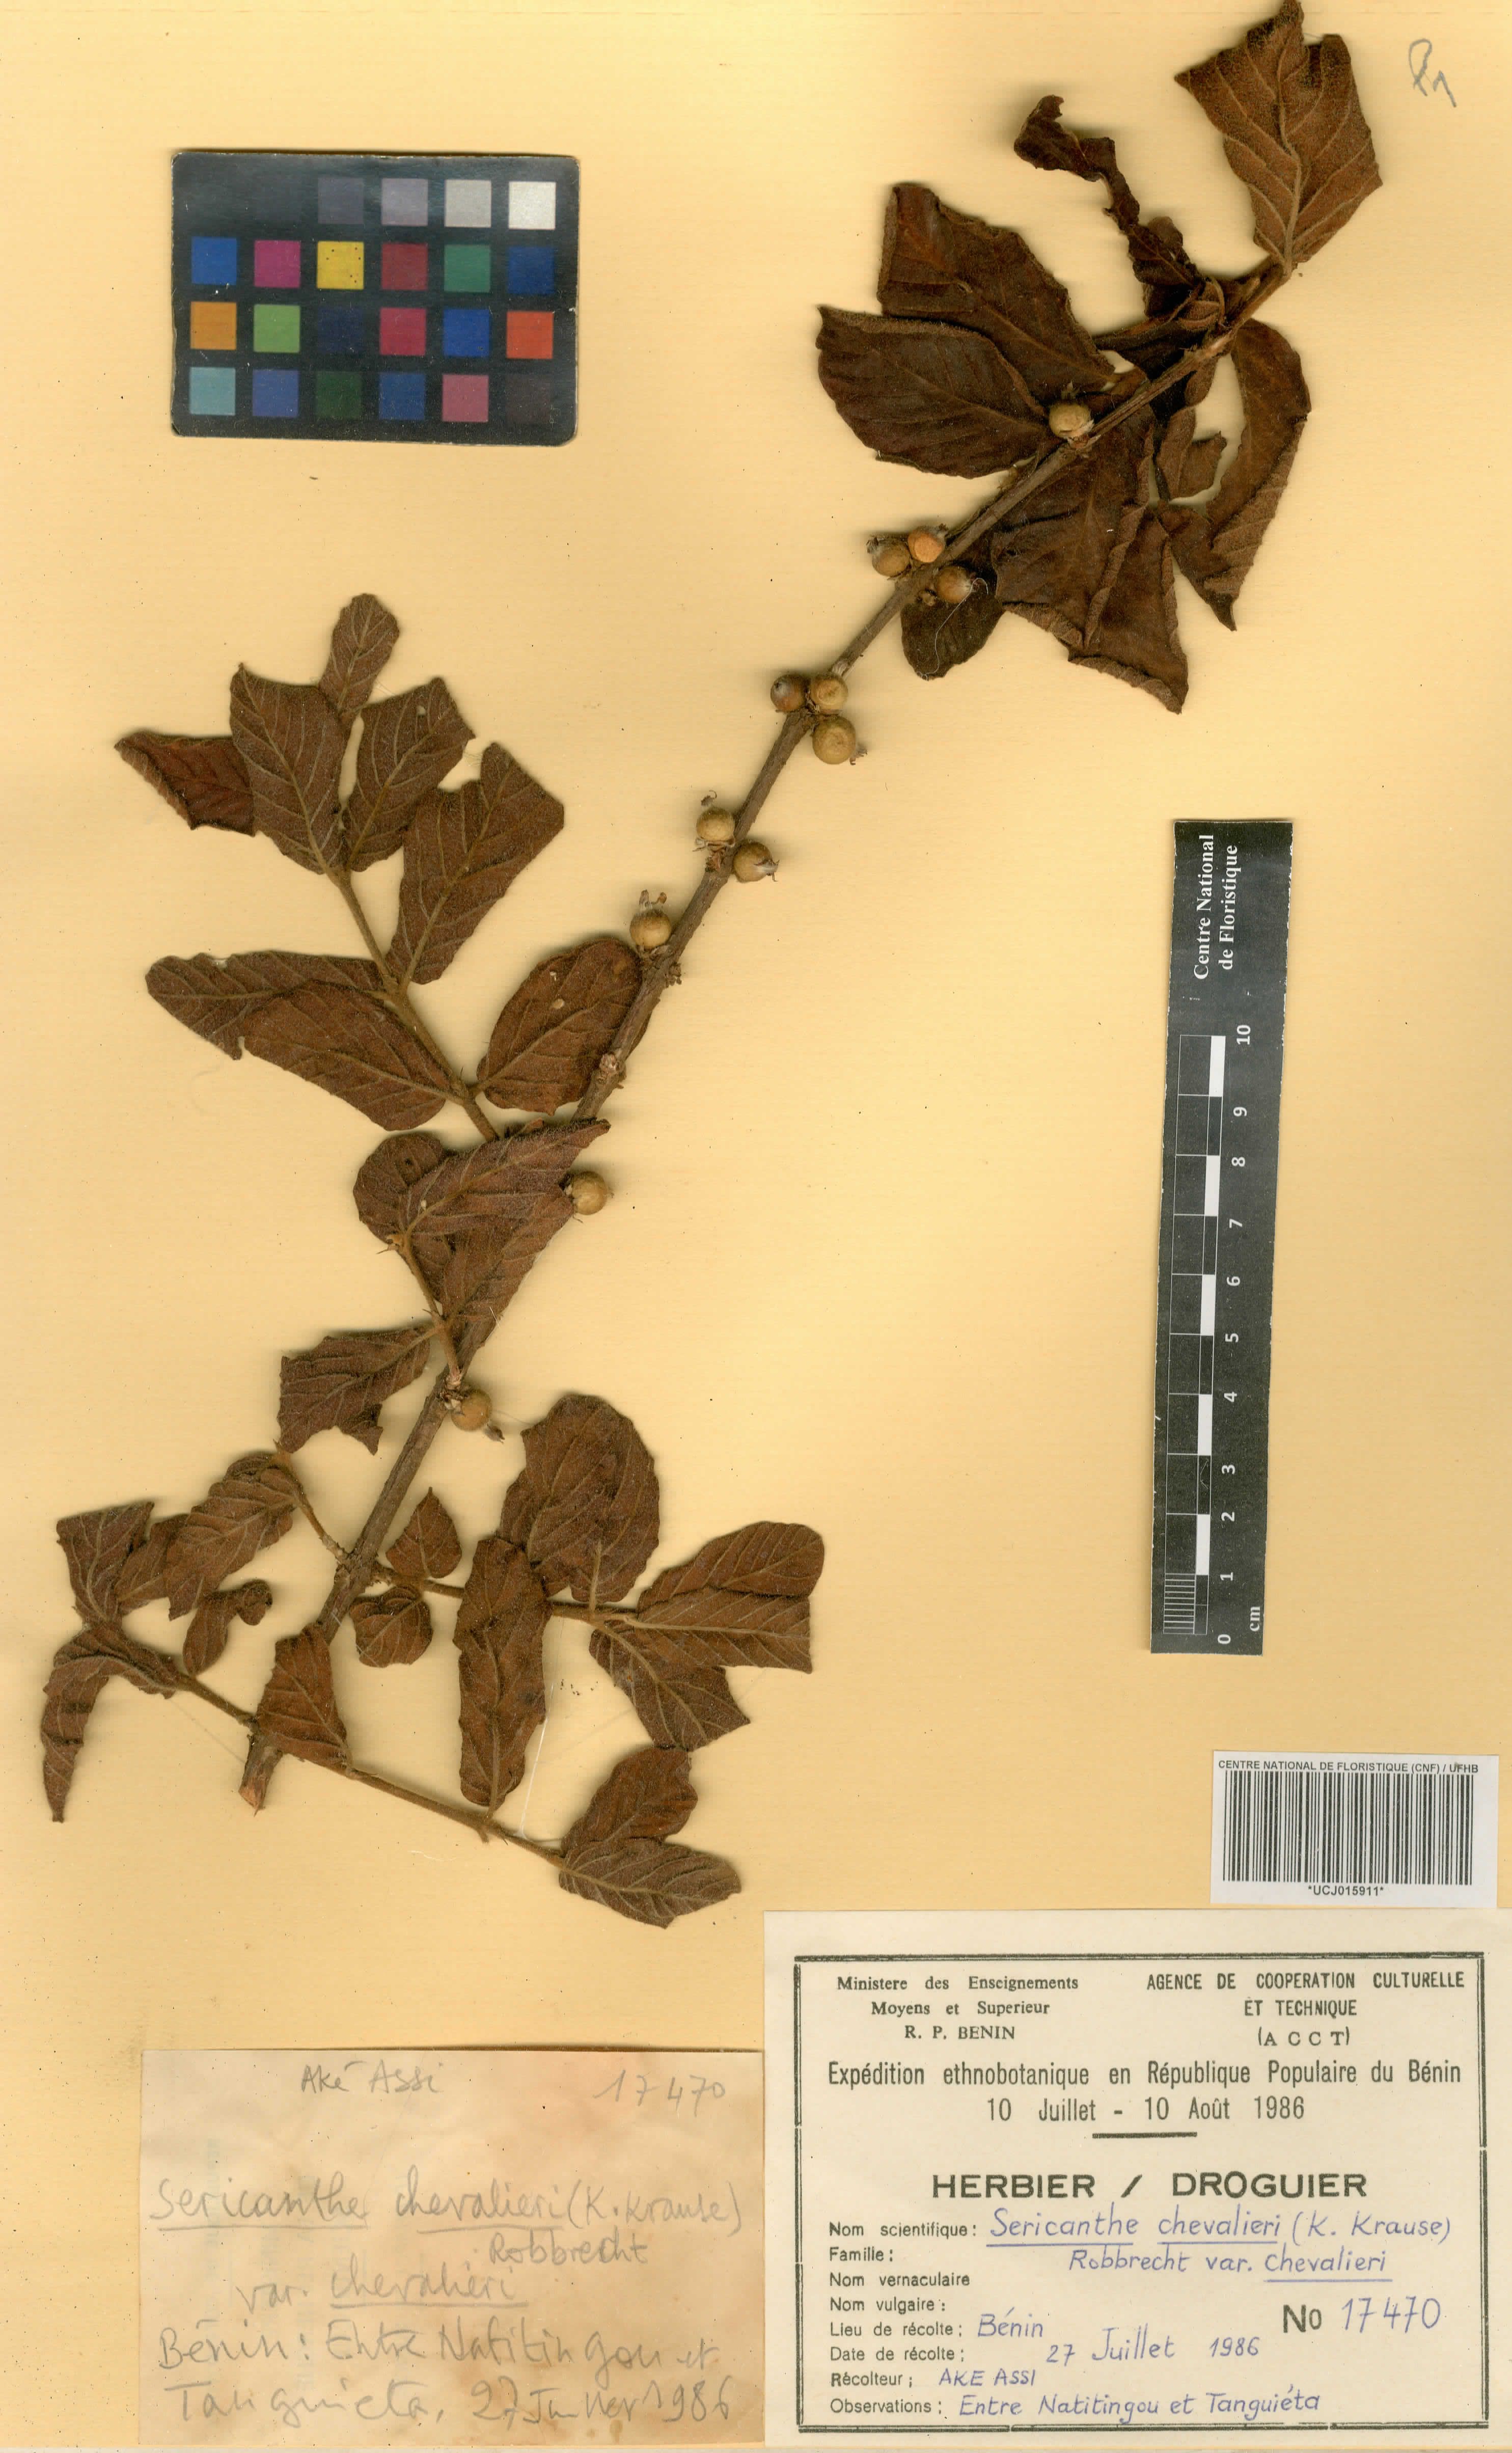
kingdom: Plantae
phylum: Tracheophyta
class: Magnoliopsida
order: Gentianales
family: Rubiaceae
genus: Sericanthe
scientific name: Sericanthe chevalieri
